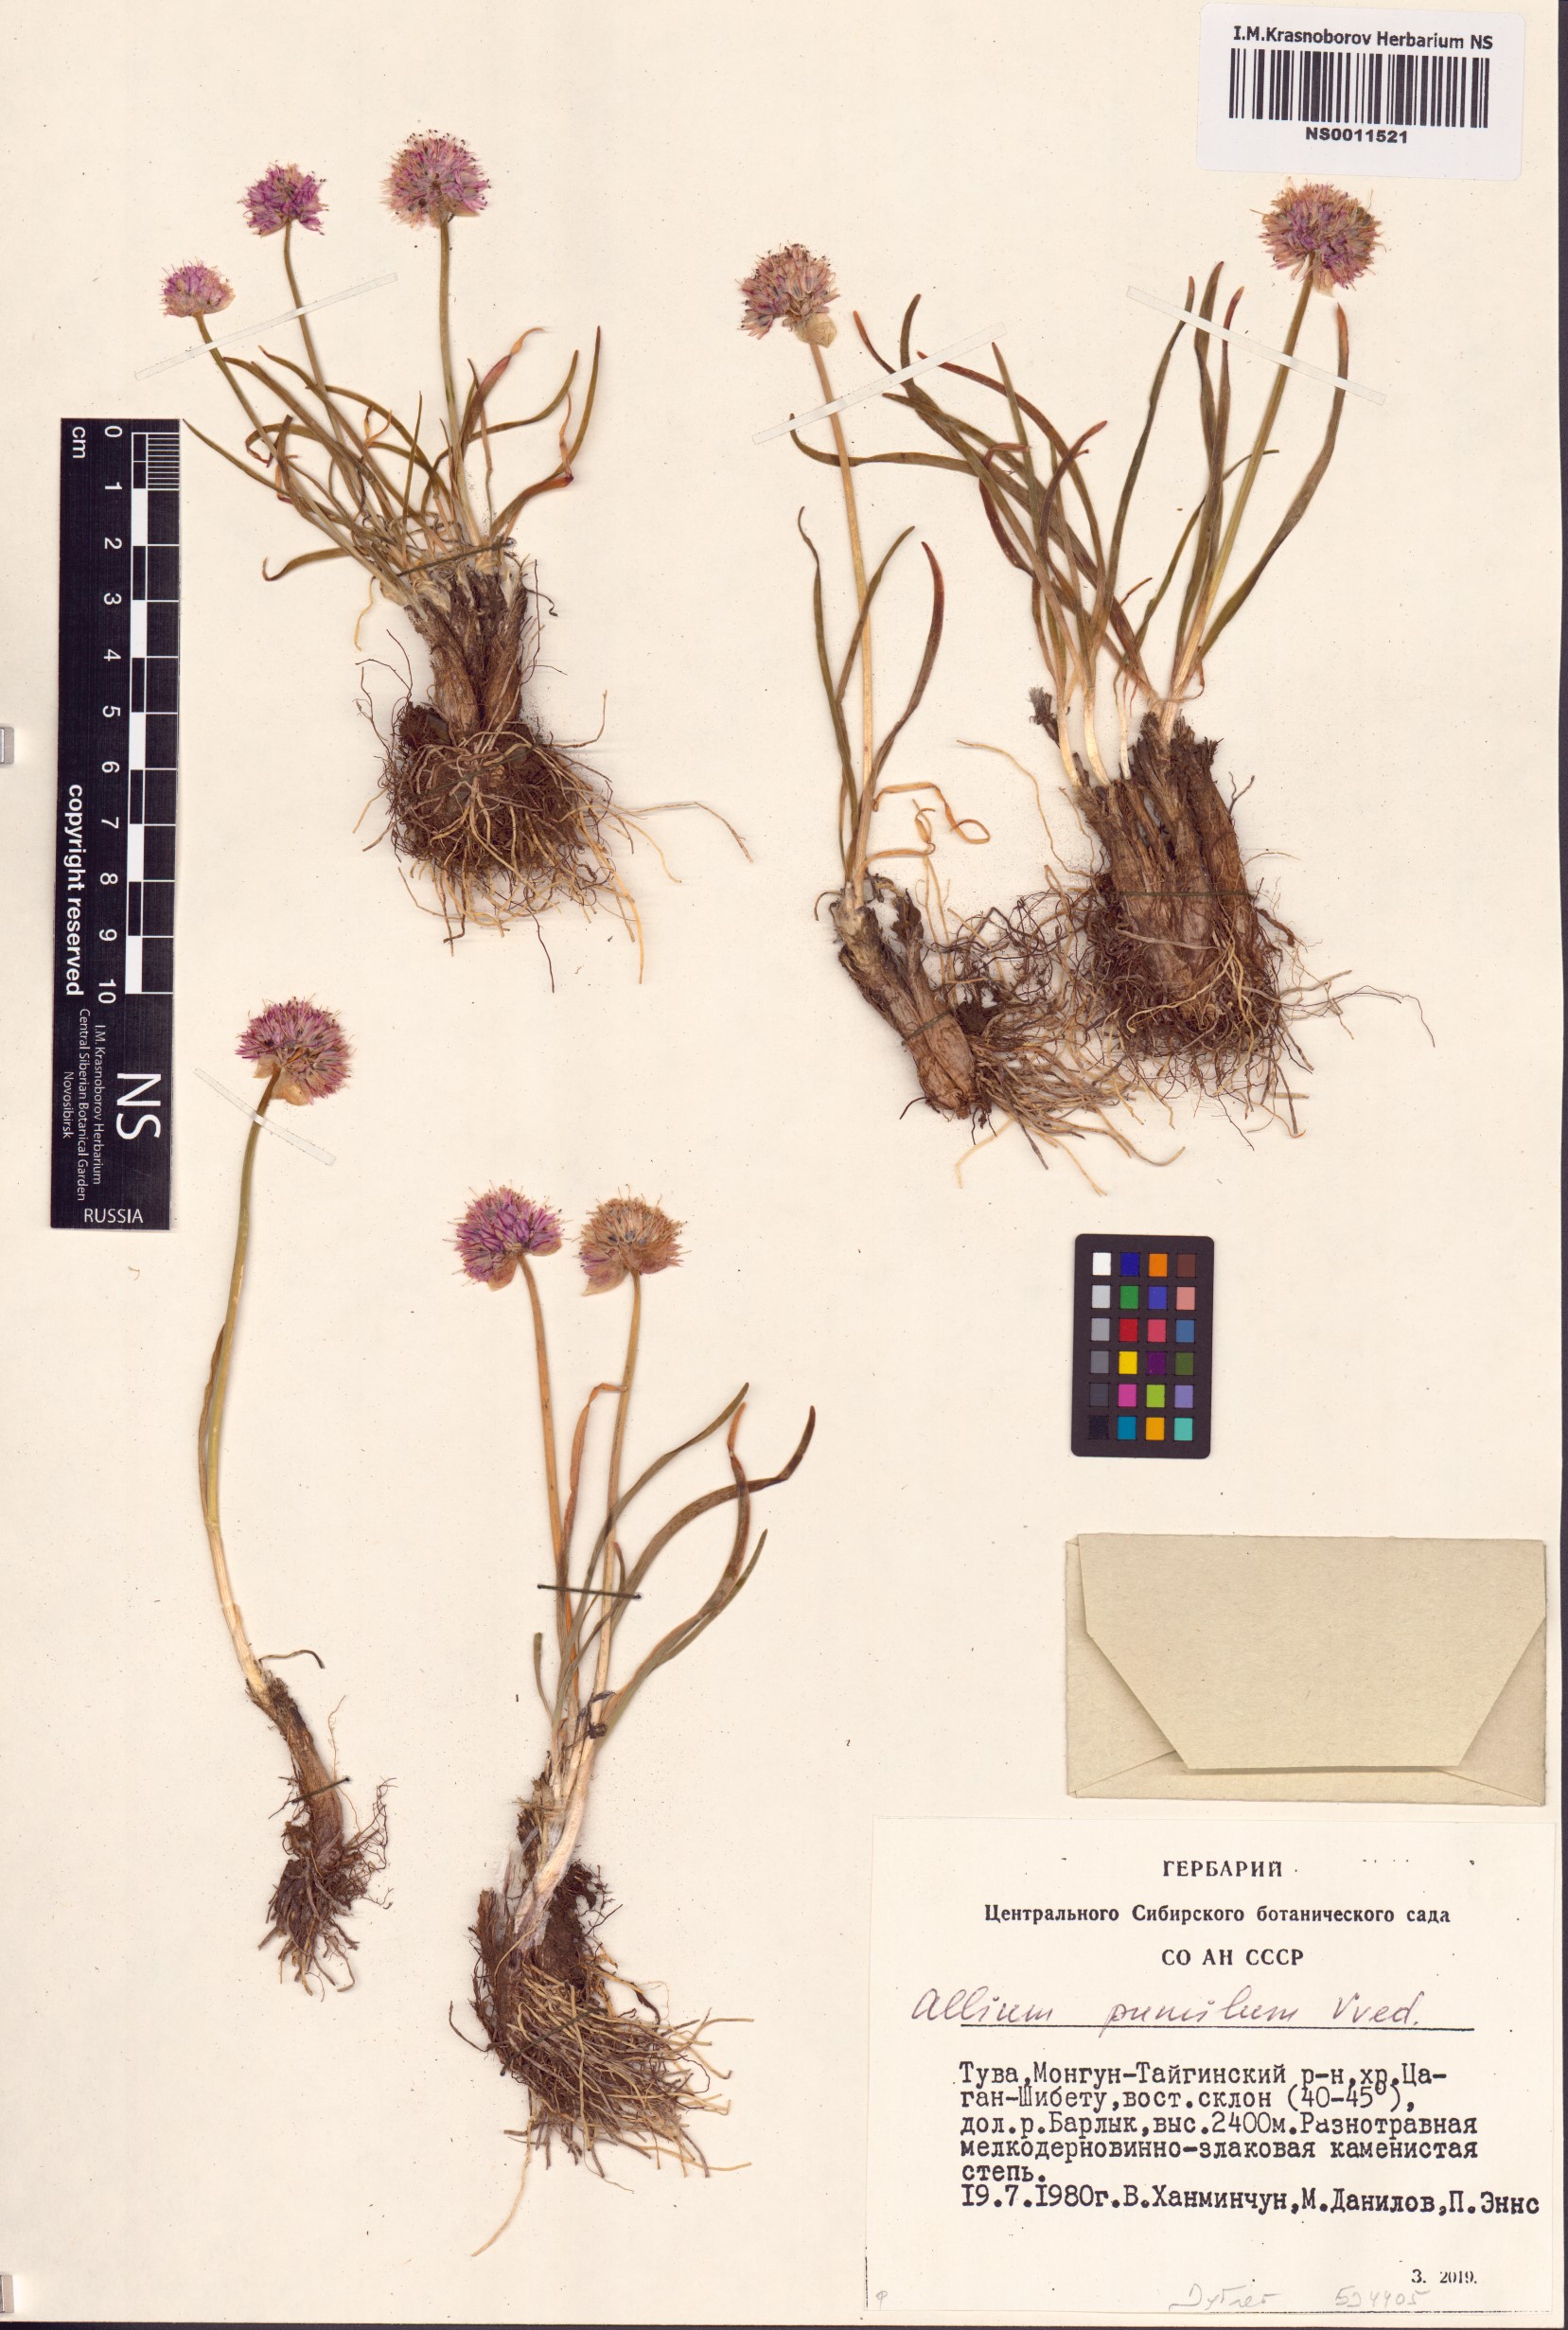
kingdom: Plantae
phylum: Tracheophyta
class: Liliopsida
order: Asparagales
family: Amaryllidaceae
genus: Allium
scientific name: Allium pumilum
